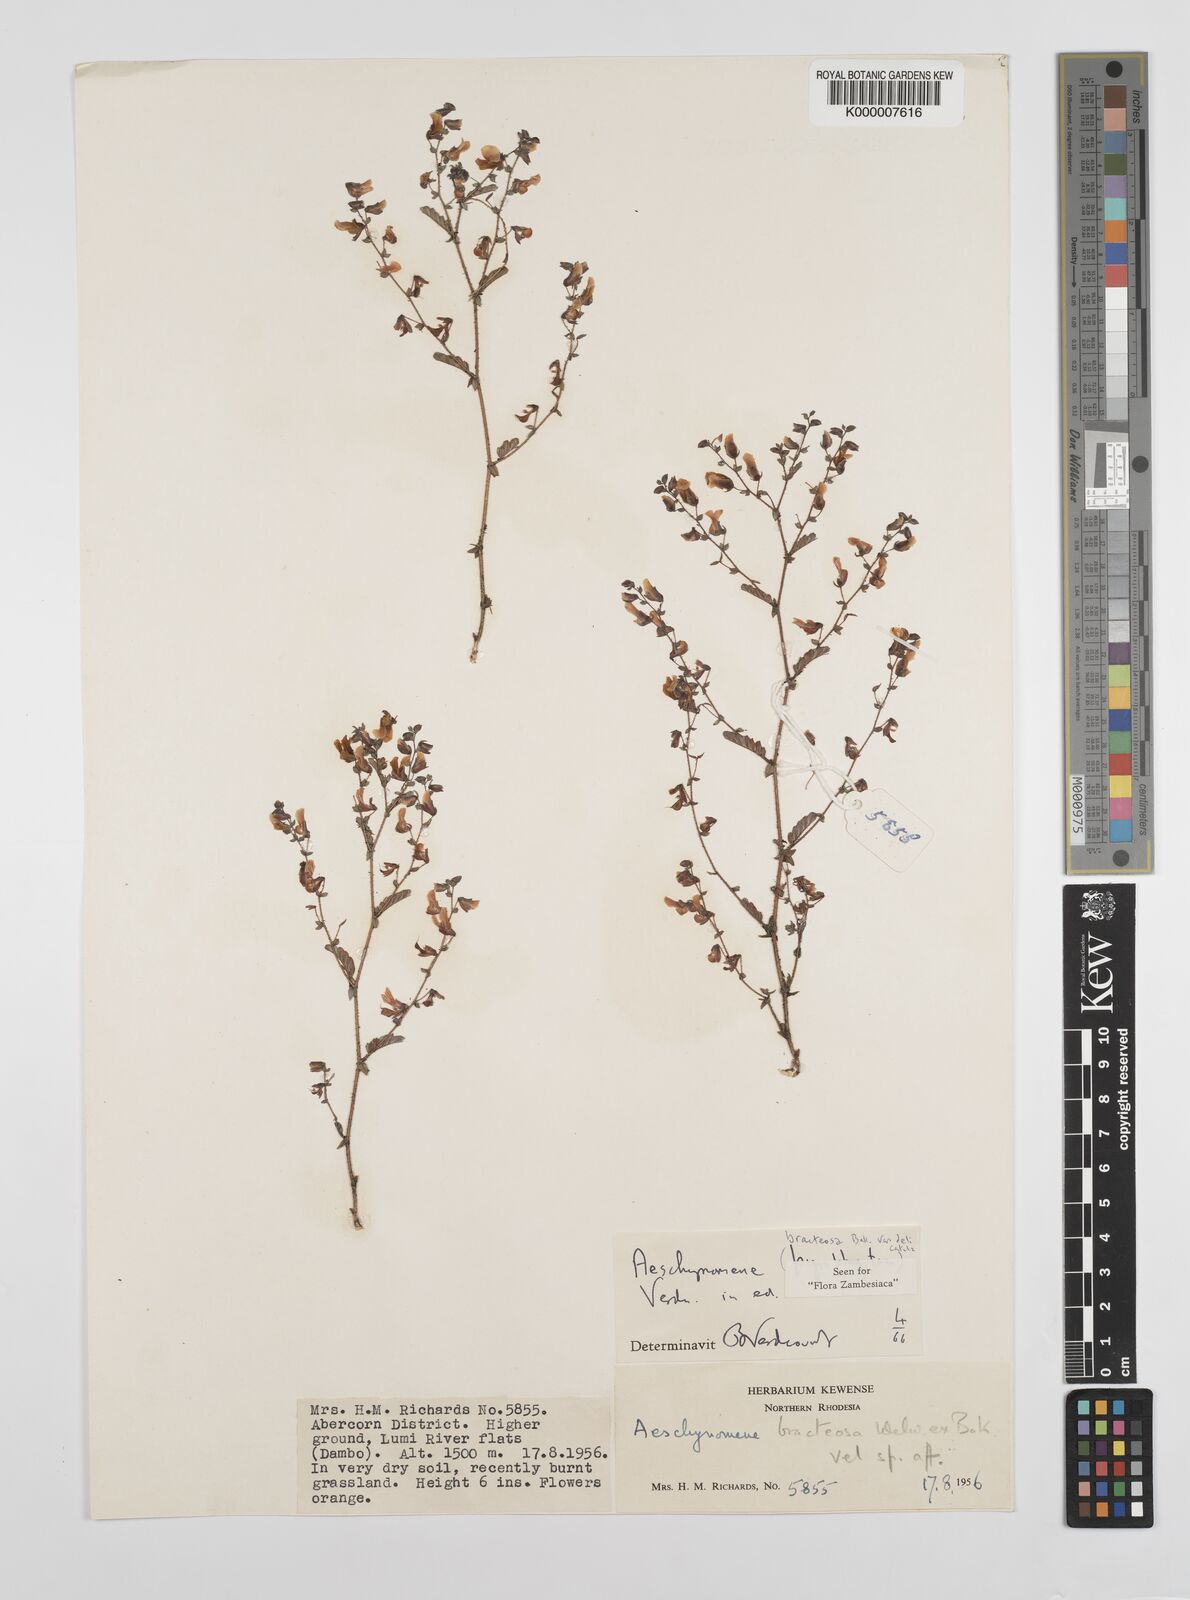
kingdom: Plantae
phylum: Tracheophyta
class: Magnoliopsida
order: Fabales
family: Fabaceae
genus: Aeschynomene
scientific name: Aeschynomene bracteosa
